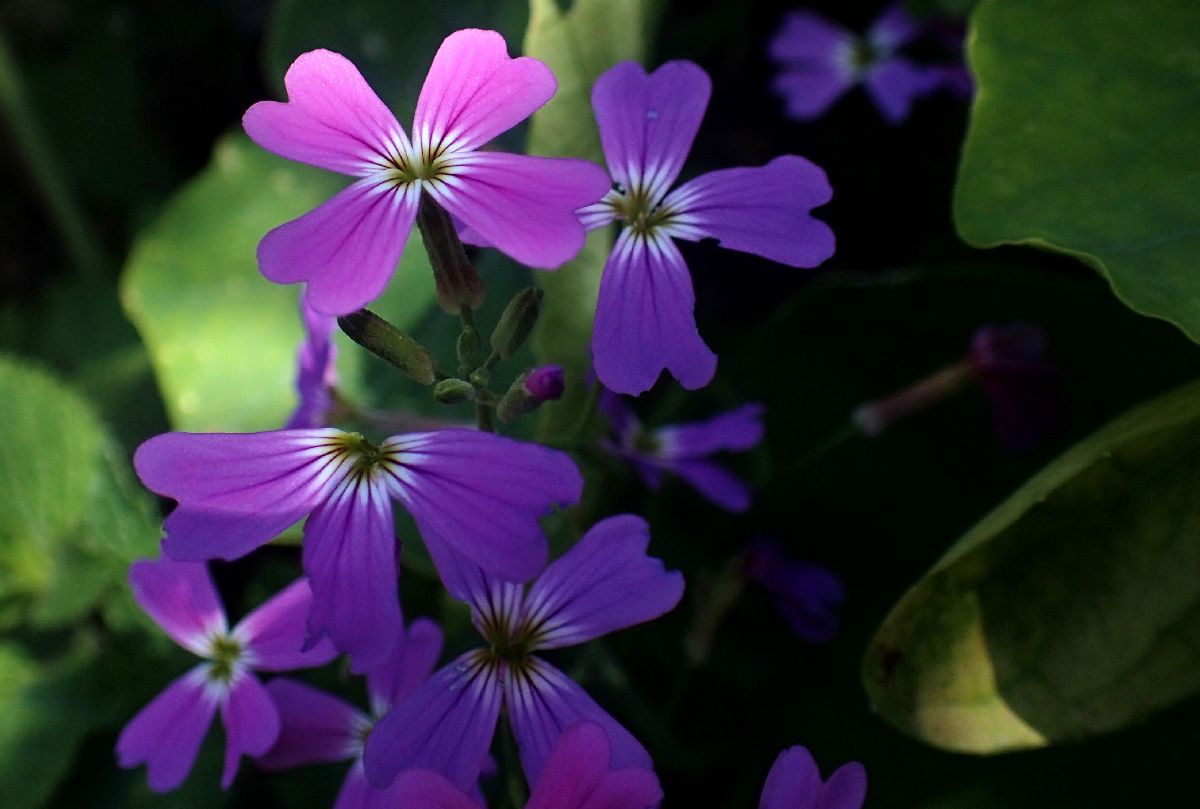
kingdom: Plantae
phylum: Tracheophyta
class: Magnoliopsida
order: Brassicales
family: Brassicaceae
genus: Malcolmia
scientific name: Malcolmia maritima
